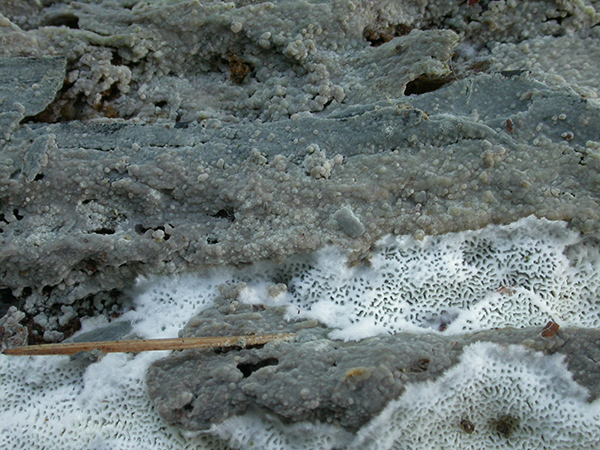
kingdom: Fungi
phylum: Basidiomycota
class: Agaricomycetes
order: Polyporales
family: Meruliaceae
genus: Hypochnicium
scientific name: Hypochnicium erikssonii
